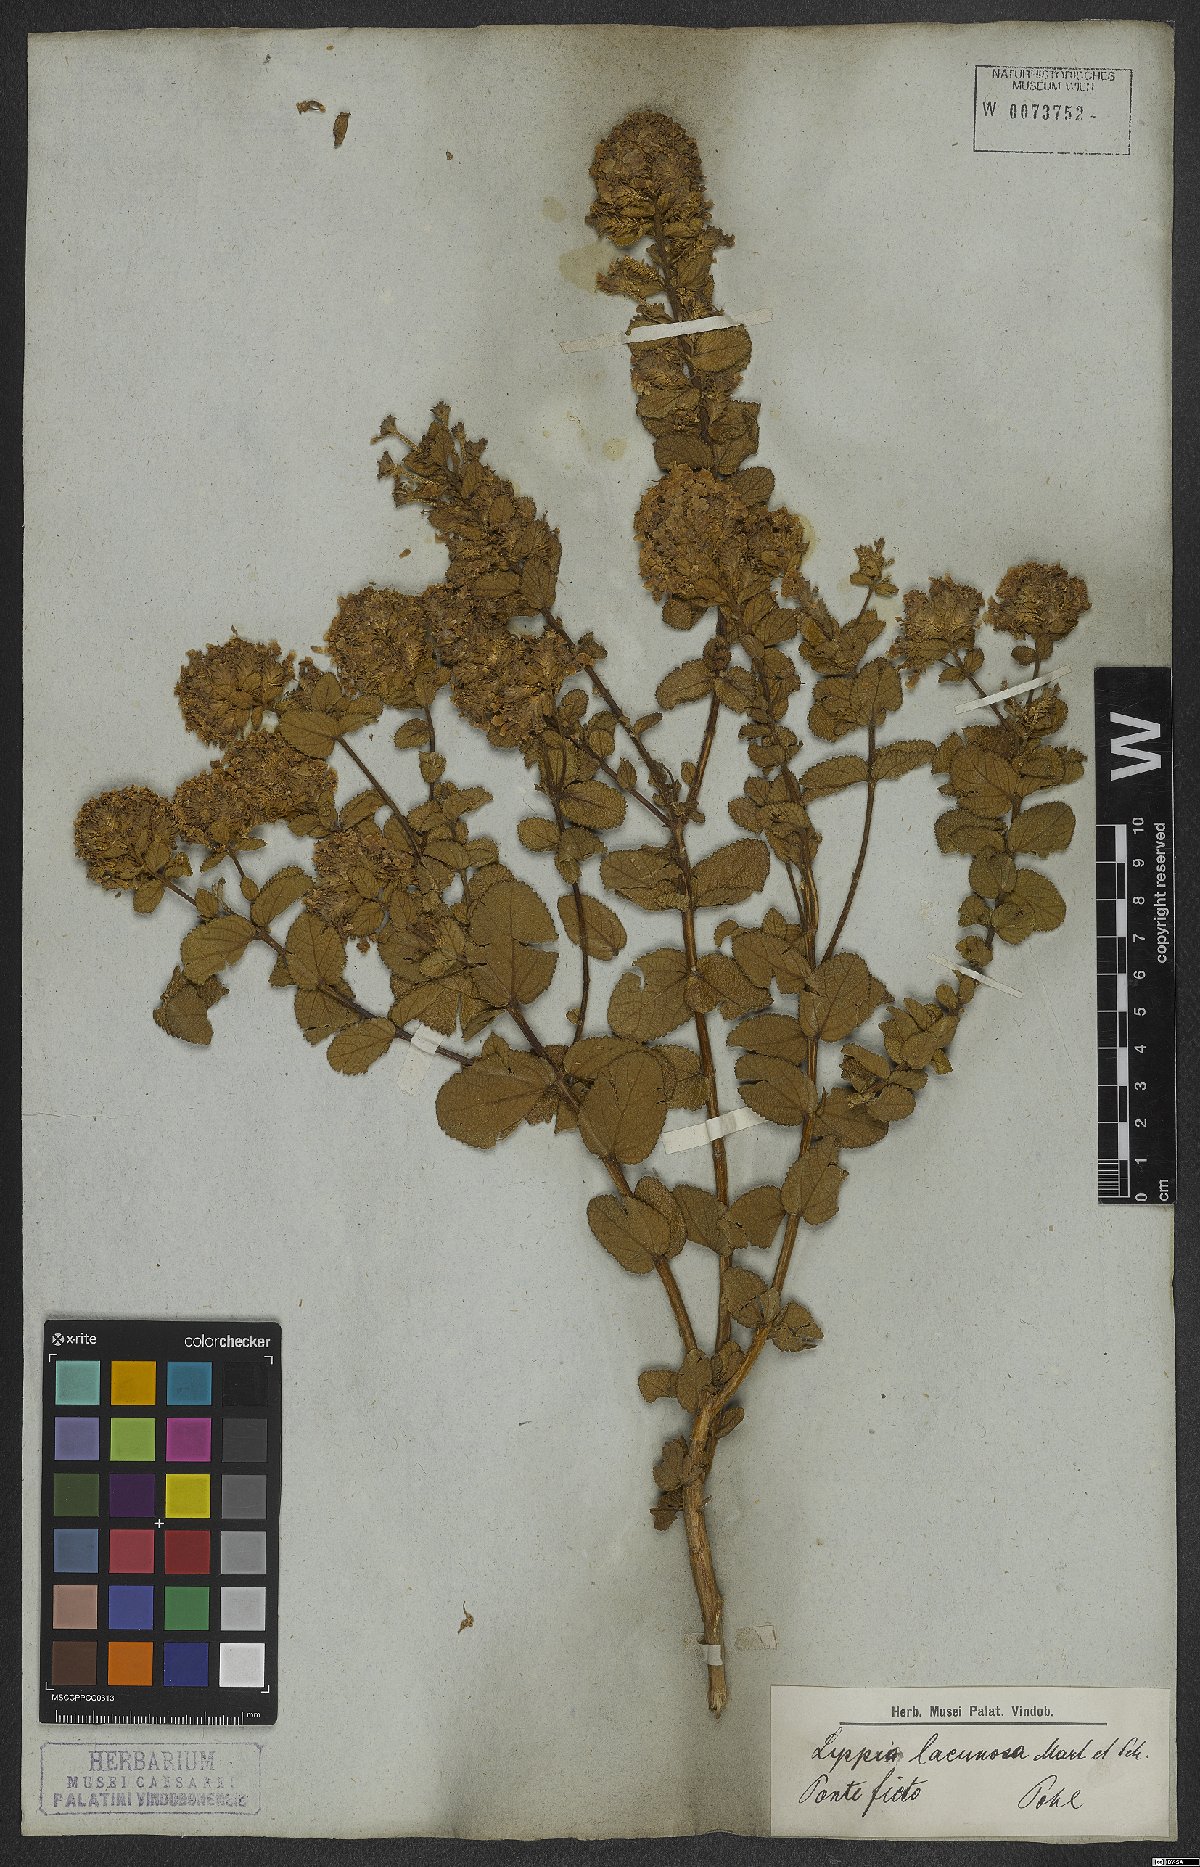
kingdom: Plantae
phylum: Tracheophyta
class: Magnoliopsida
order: Lamiales
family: Verbenaceae
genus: Lippia
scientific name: Lippia lacunosa
